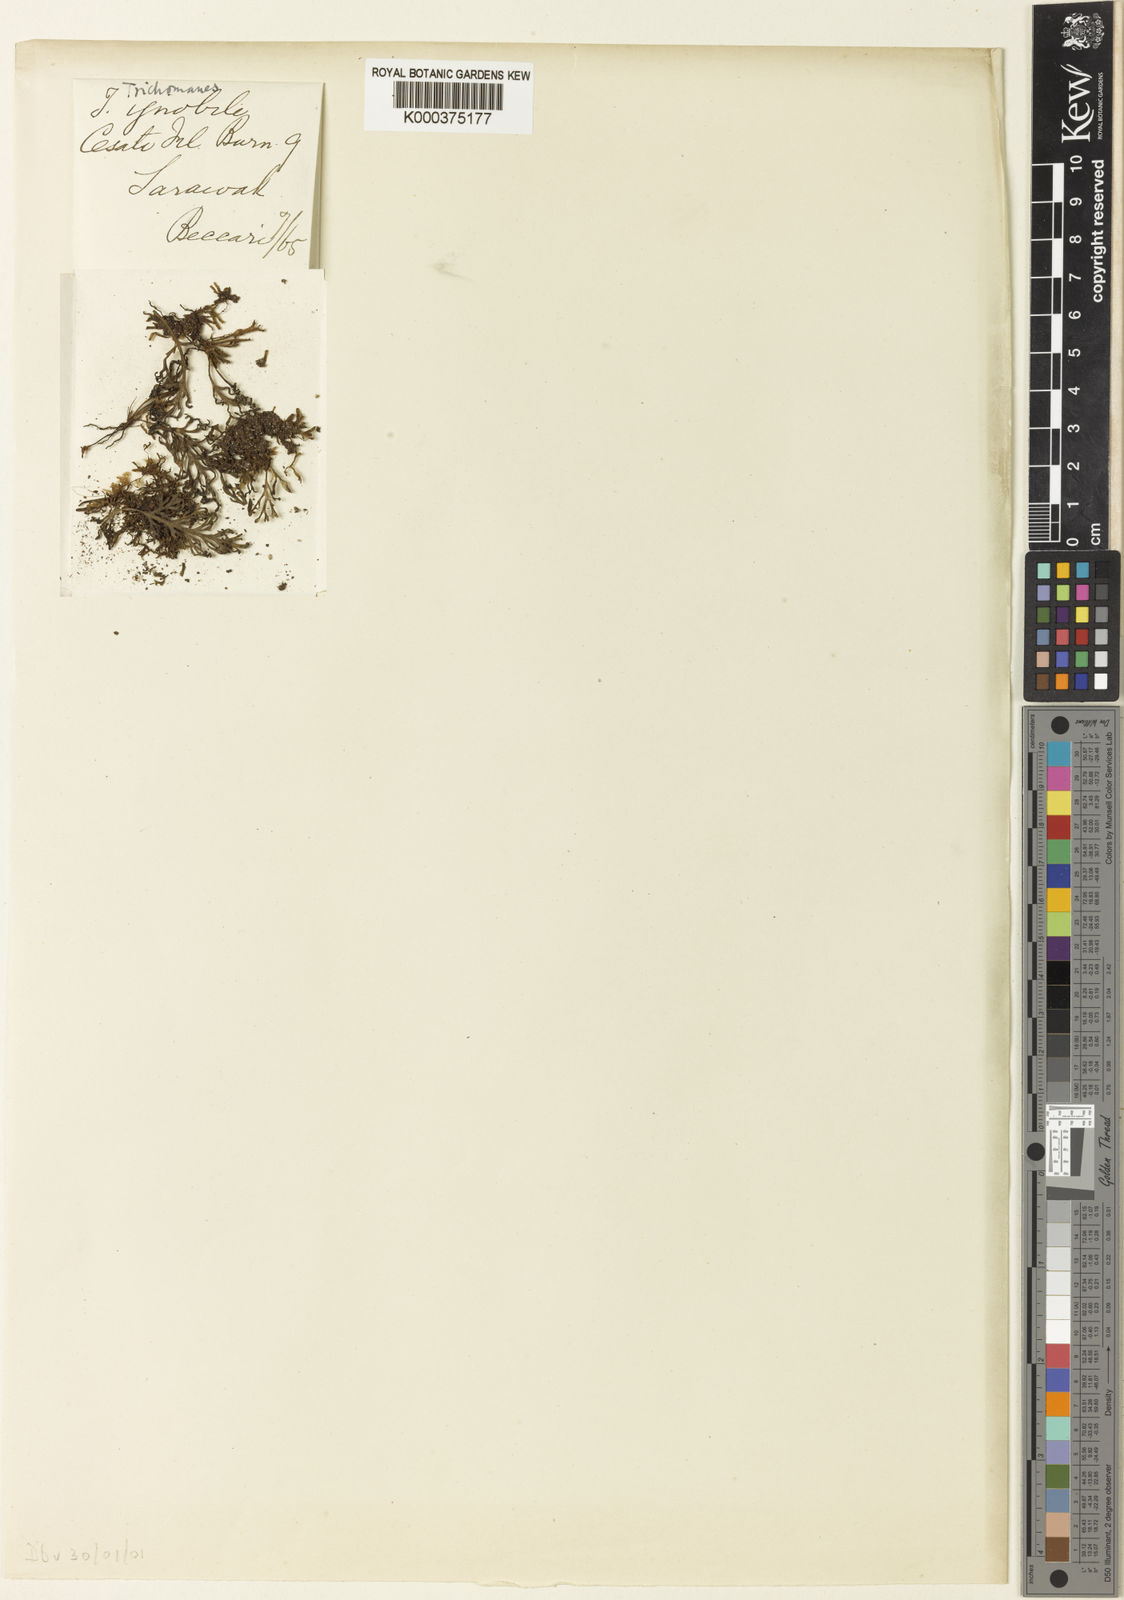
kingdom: Plantae
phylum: Tracheophyta
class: Polypodiopsida
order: Hymenophyllales
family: Hymenophyllaceae
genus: Trichomanes
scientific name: Trichomanes curranii
